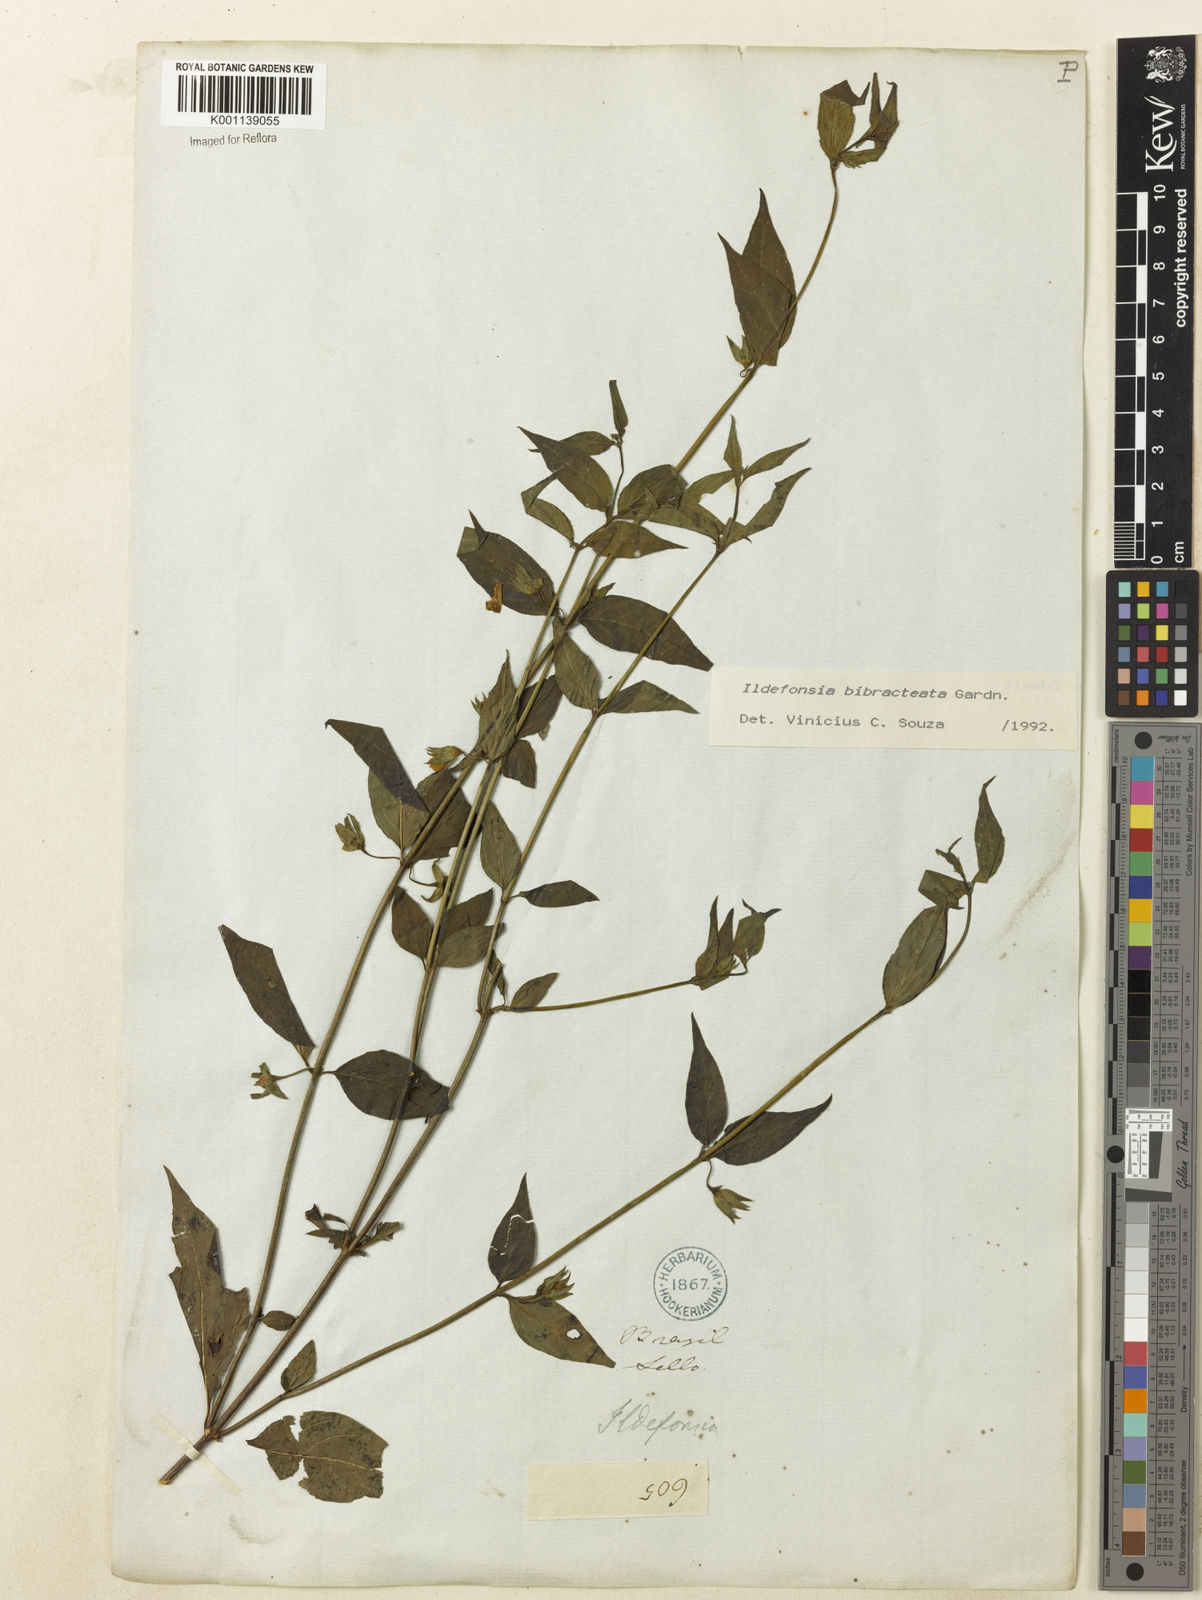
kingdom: Plantae
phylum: Tracheophyta
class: Magnoliopsida
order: Lamiales
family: Plantaginaceae
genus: Bacopa
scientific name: Bacopa
